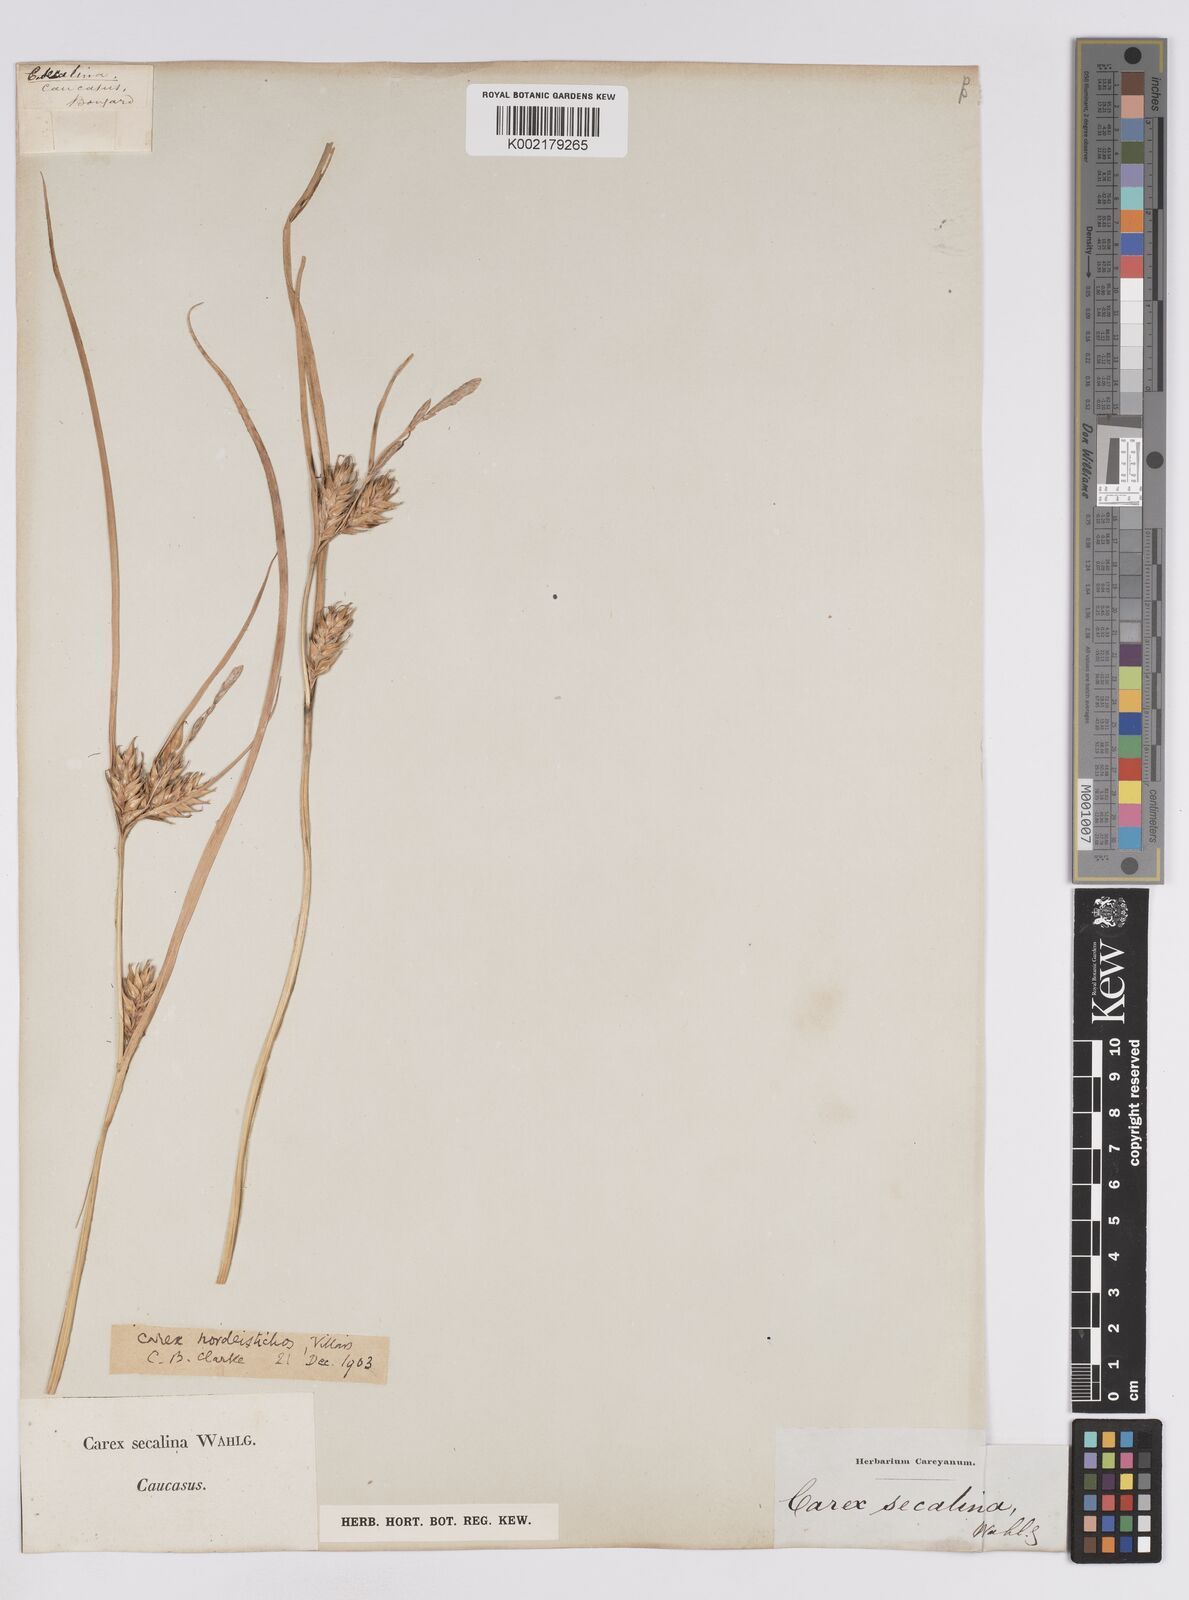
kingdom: Plantae
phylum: Tracheophyta
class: Liliopsida
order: Poales
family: Cyperaceae
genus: Carex
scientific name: Carex hordeistichos
